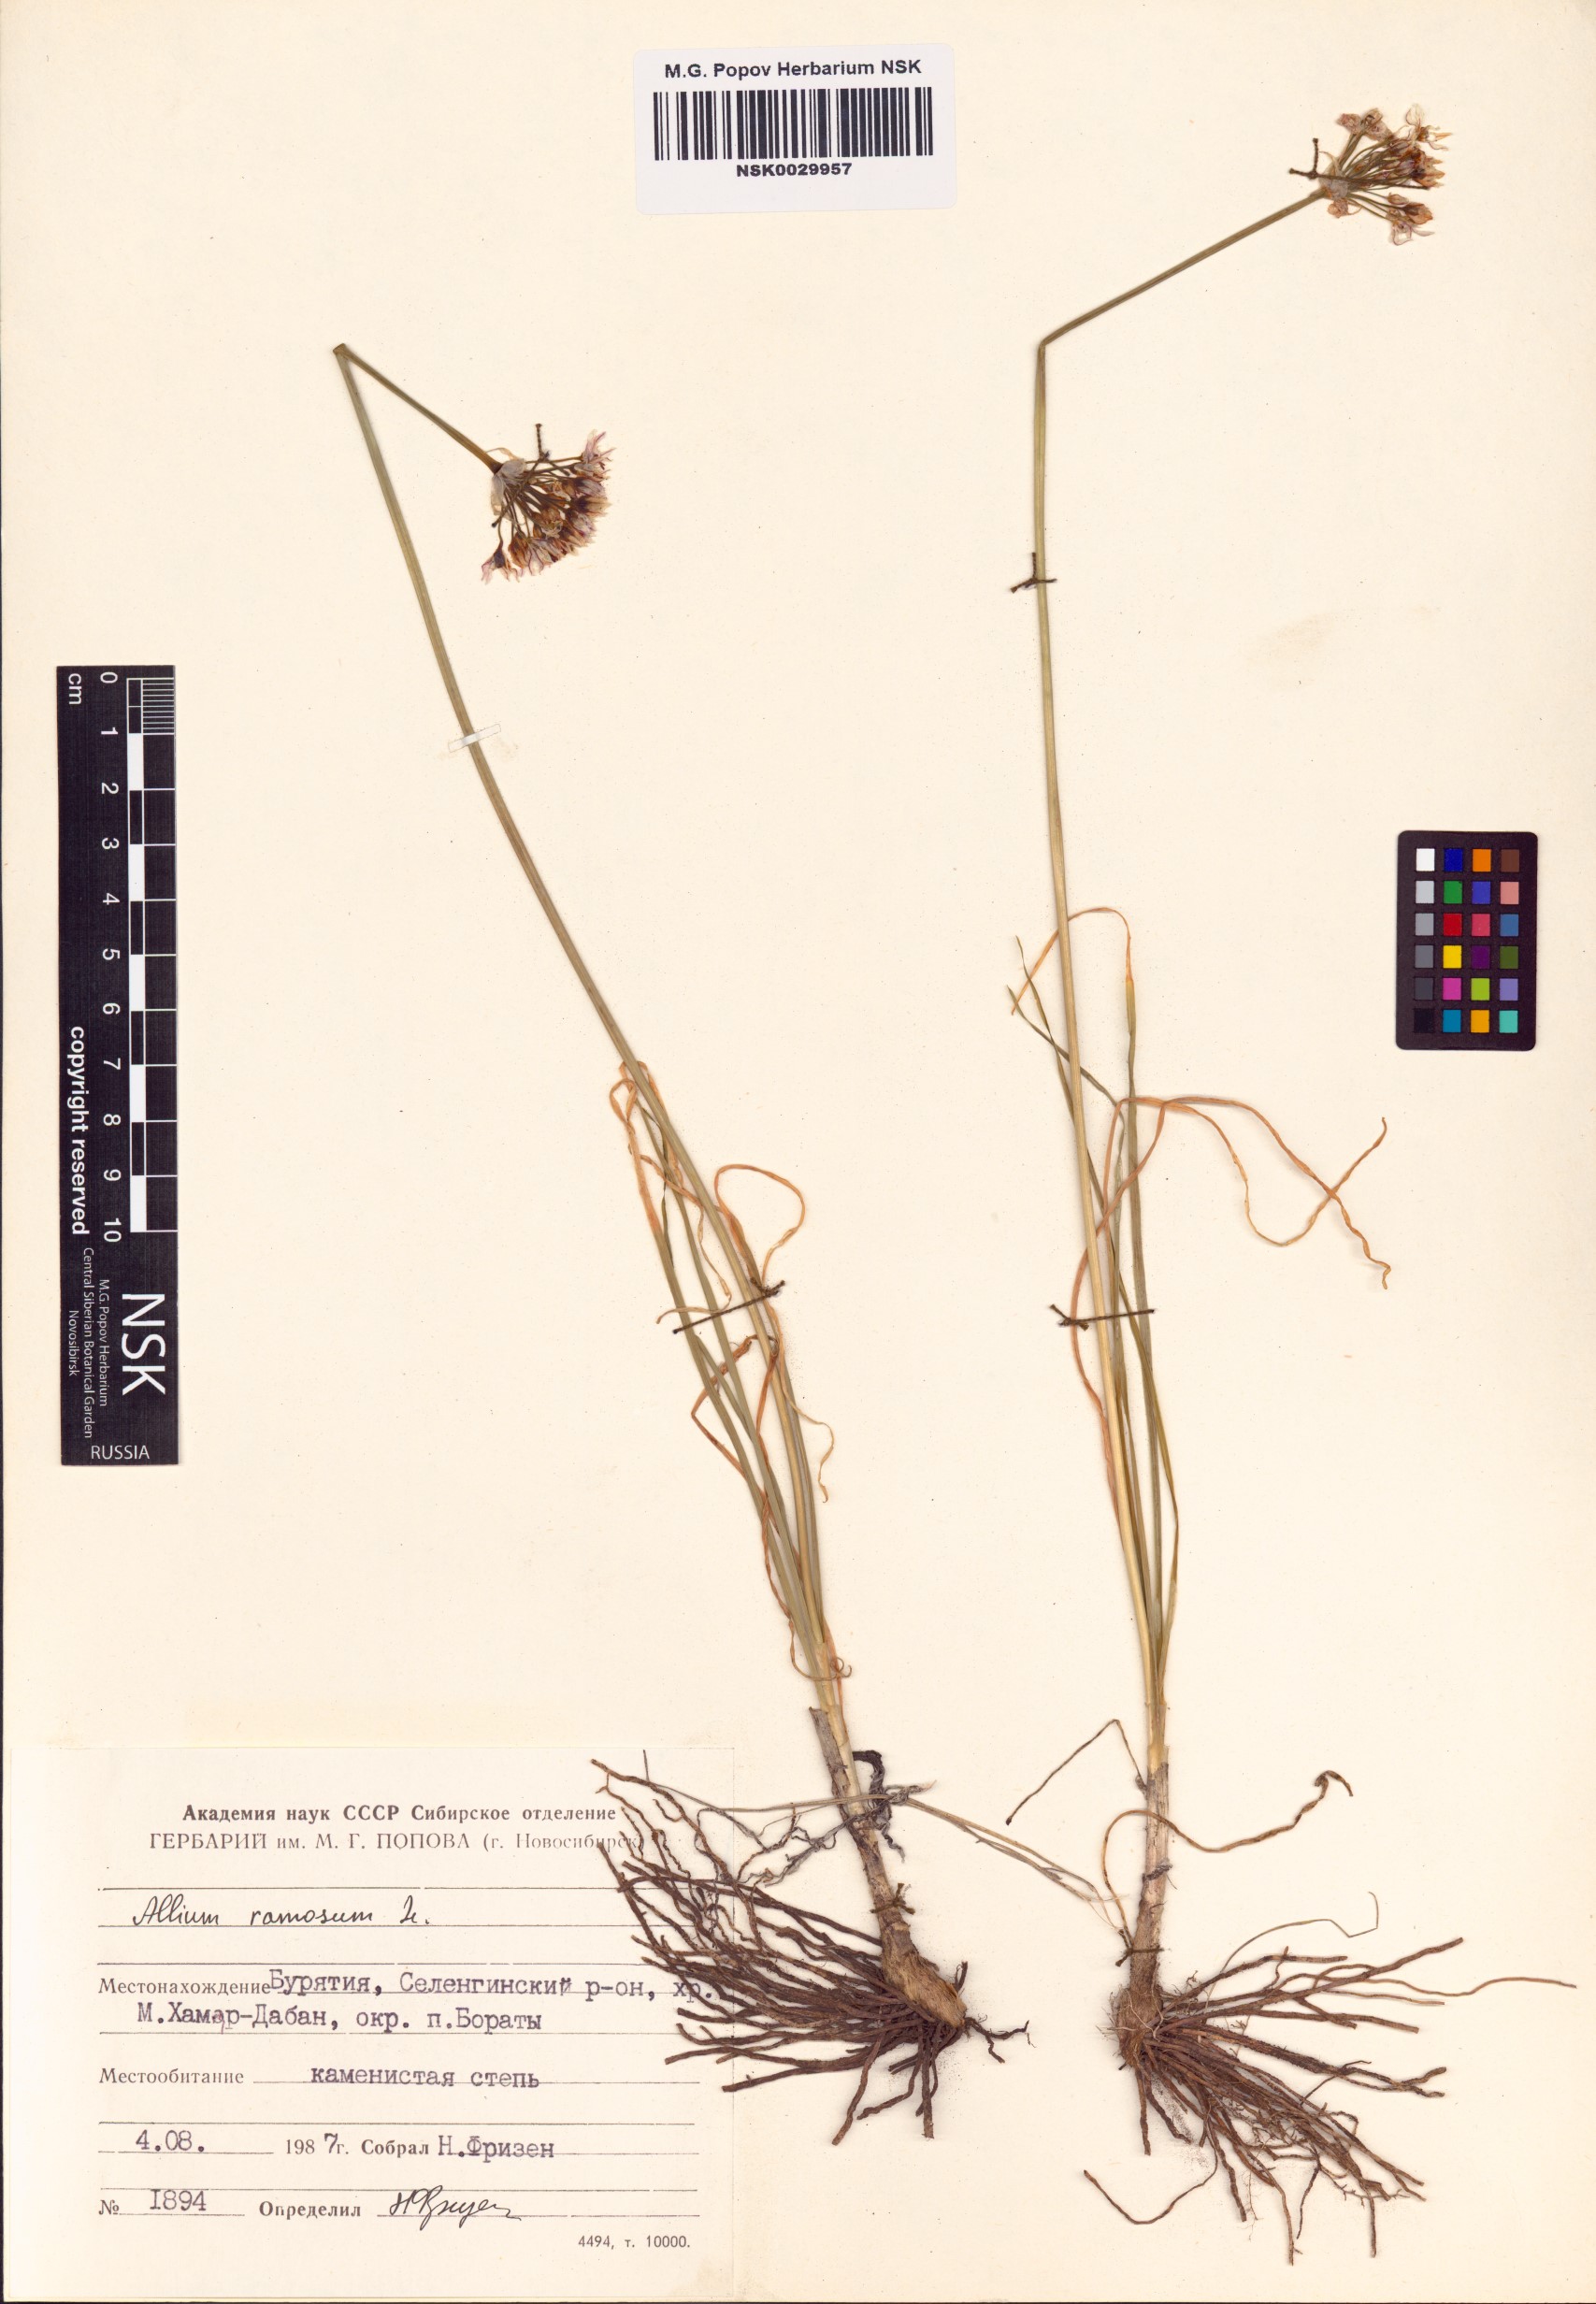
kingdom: Plantae
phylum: Tracheophyta
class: Liliopsida
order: Asparagales
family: Amaryllidaceae
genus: Allium
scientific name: Allium ramosum
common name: Fragrant garlic
